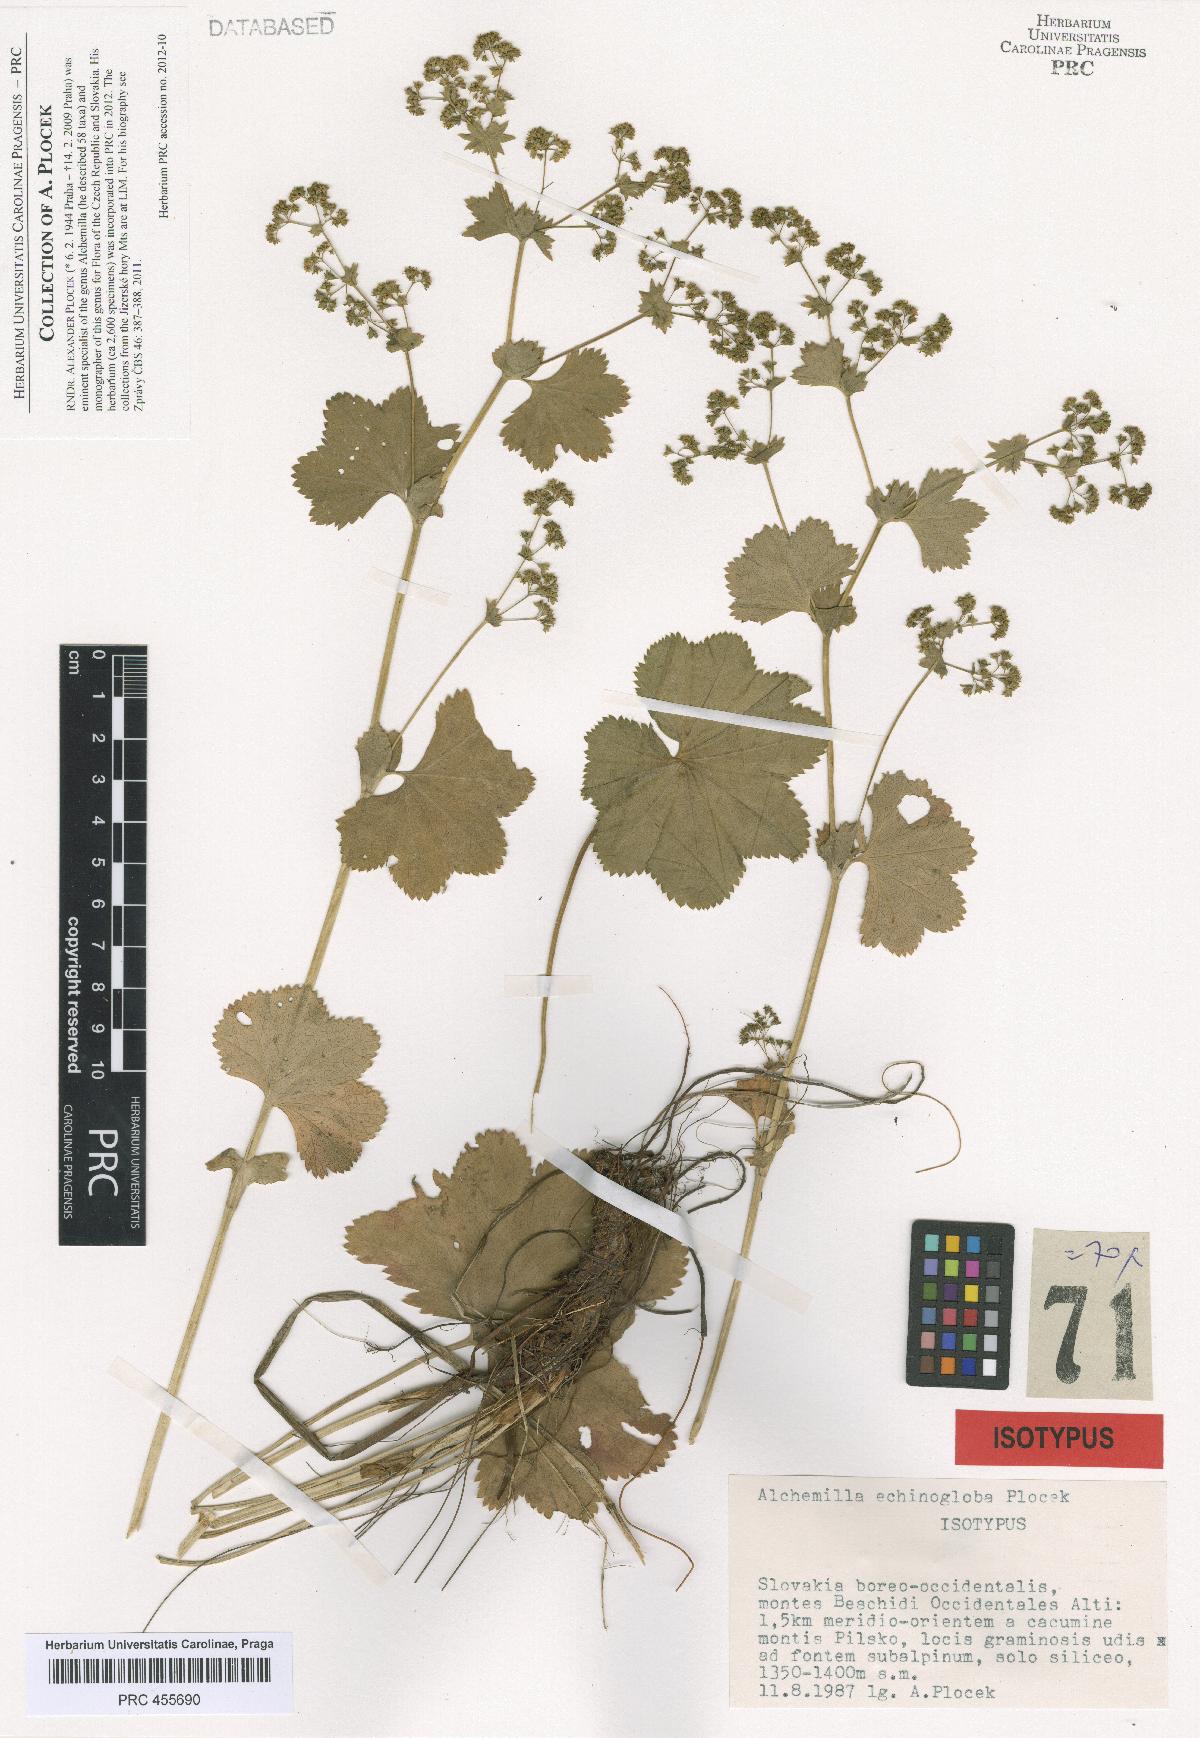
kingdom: Plantae
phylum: Tracheophyta
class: Magnoliopsida
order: Rosales
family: Rosaceae
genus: Alchemilla
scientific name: Alchemilla echinogloba
